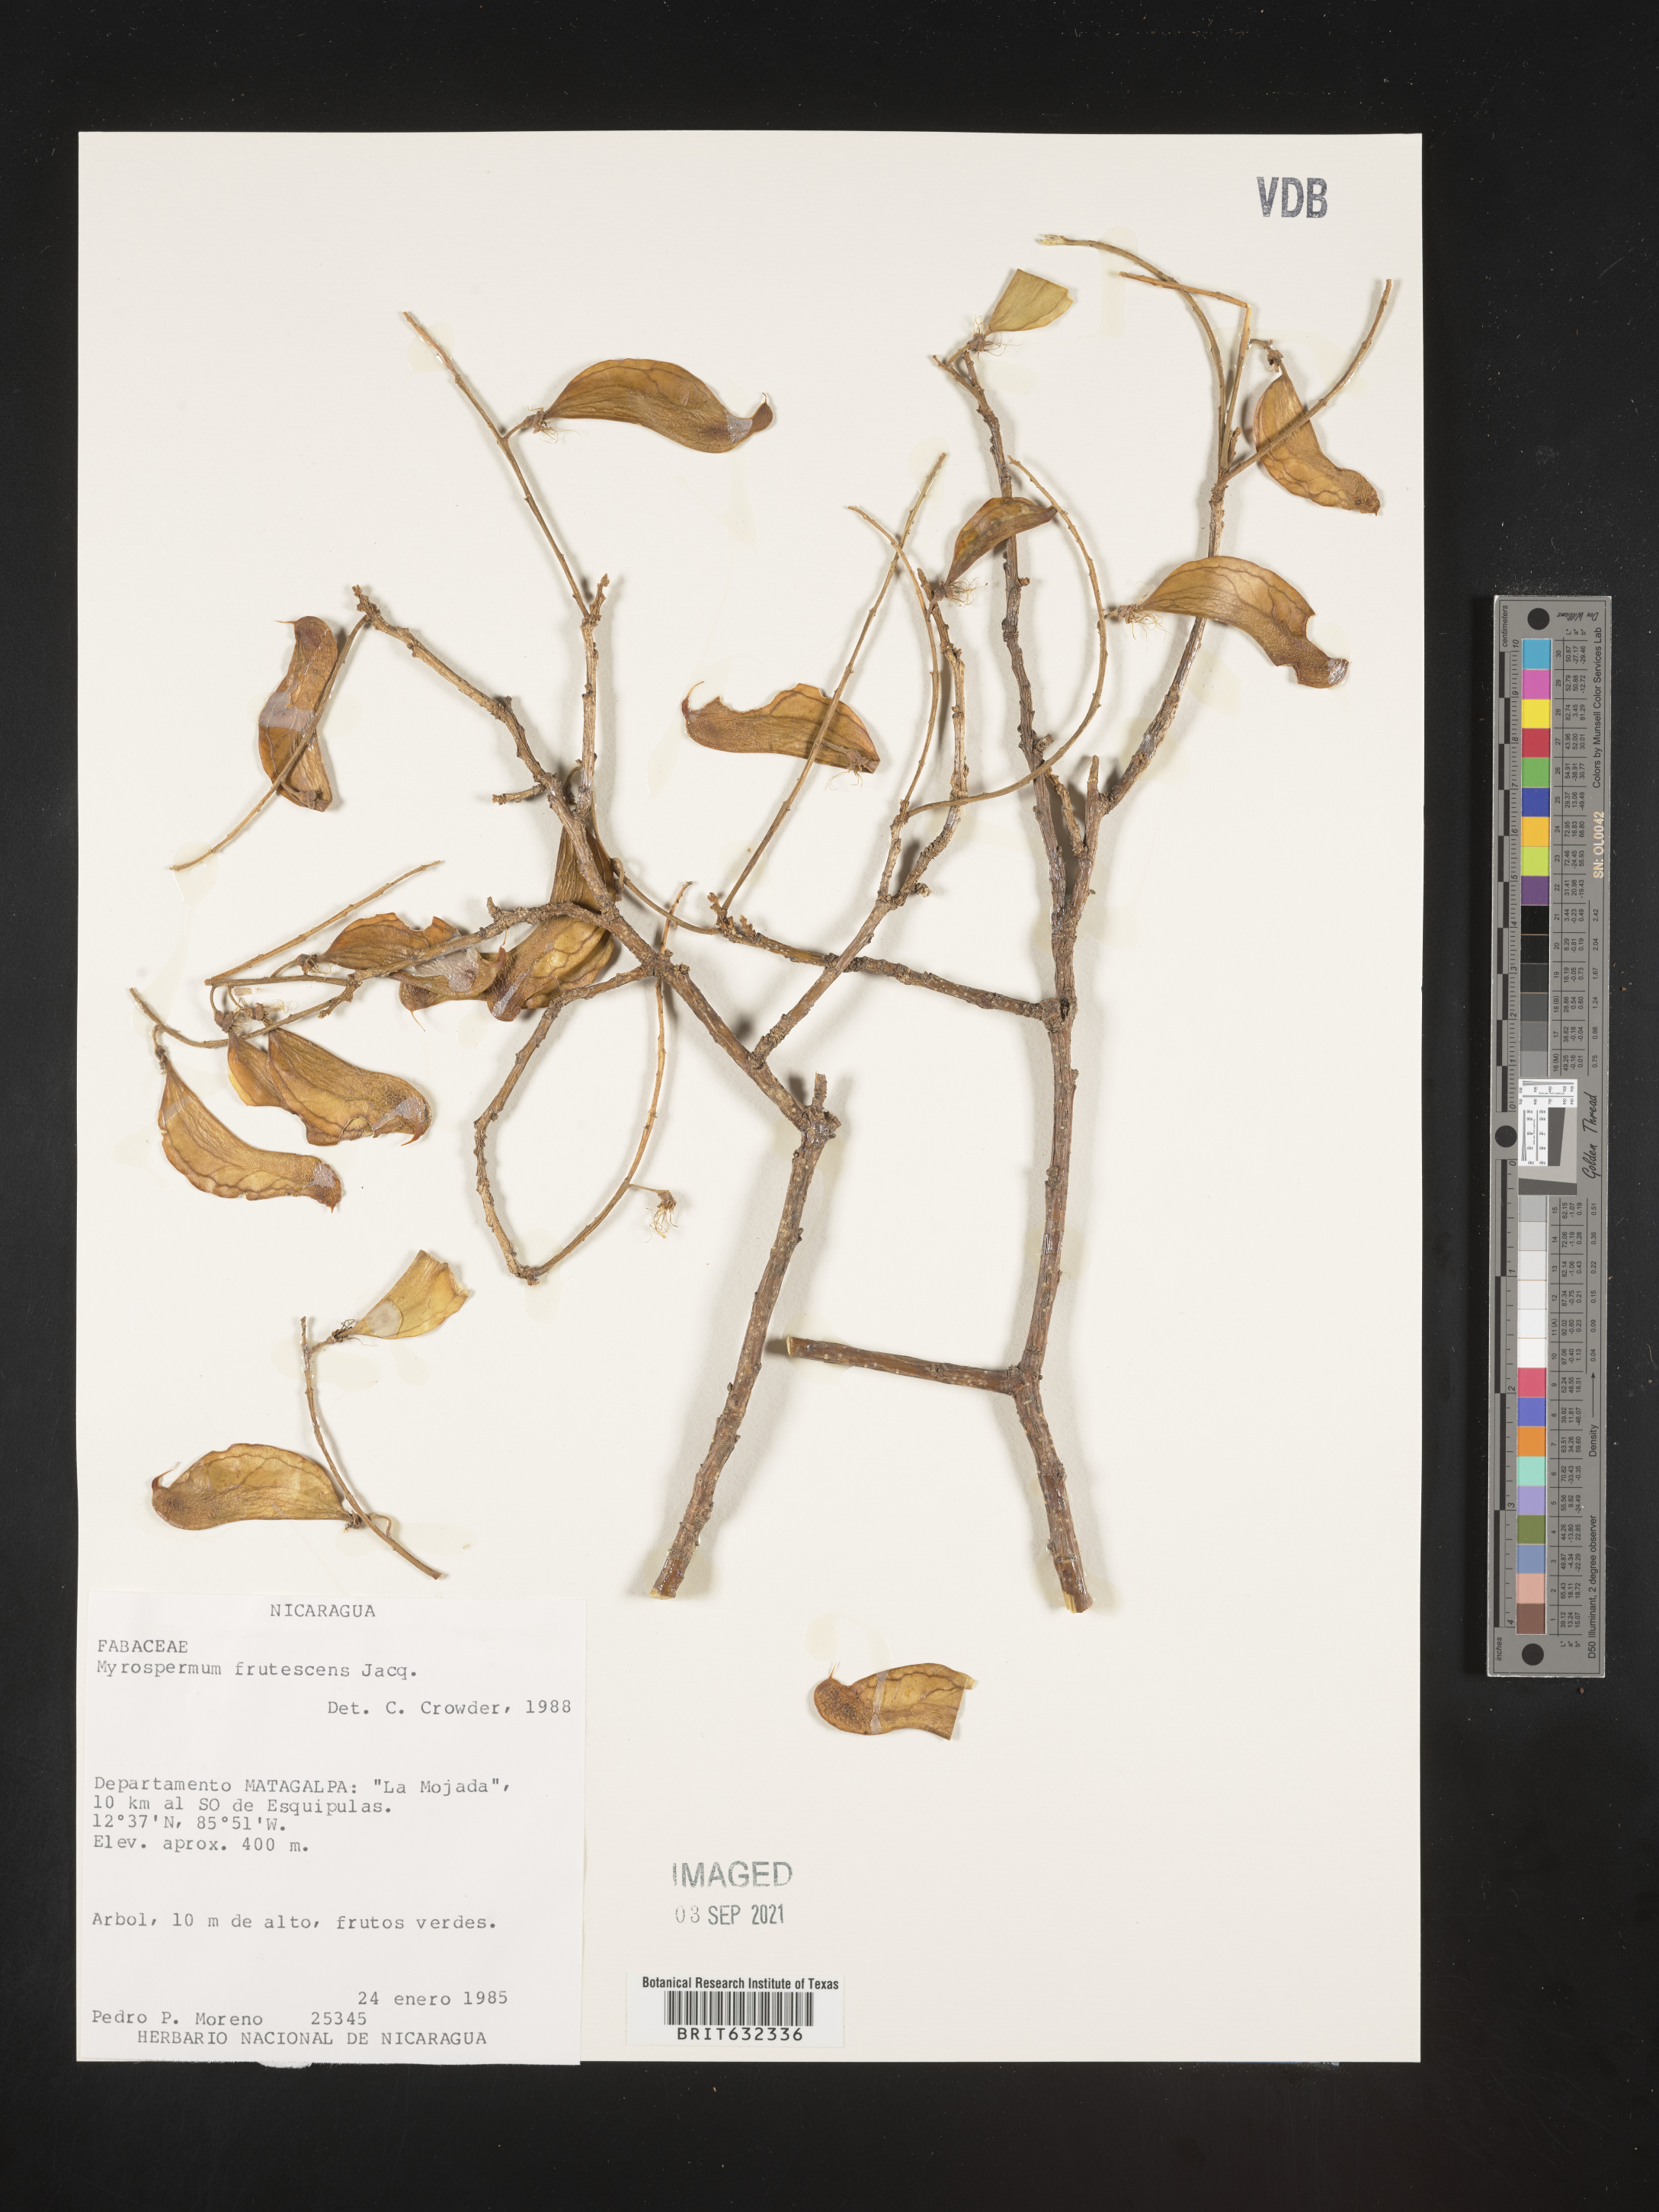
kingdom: Plantae
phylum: Tracheophyta
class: Magnoliopsida
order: Fabales
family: Fabaceae
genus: Myrospermum
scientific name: Myrospermum
